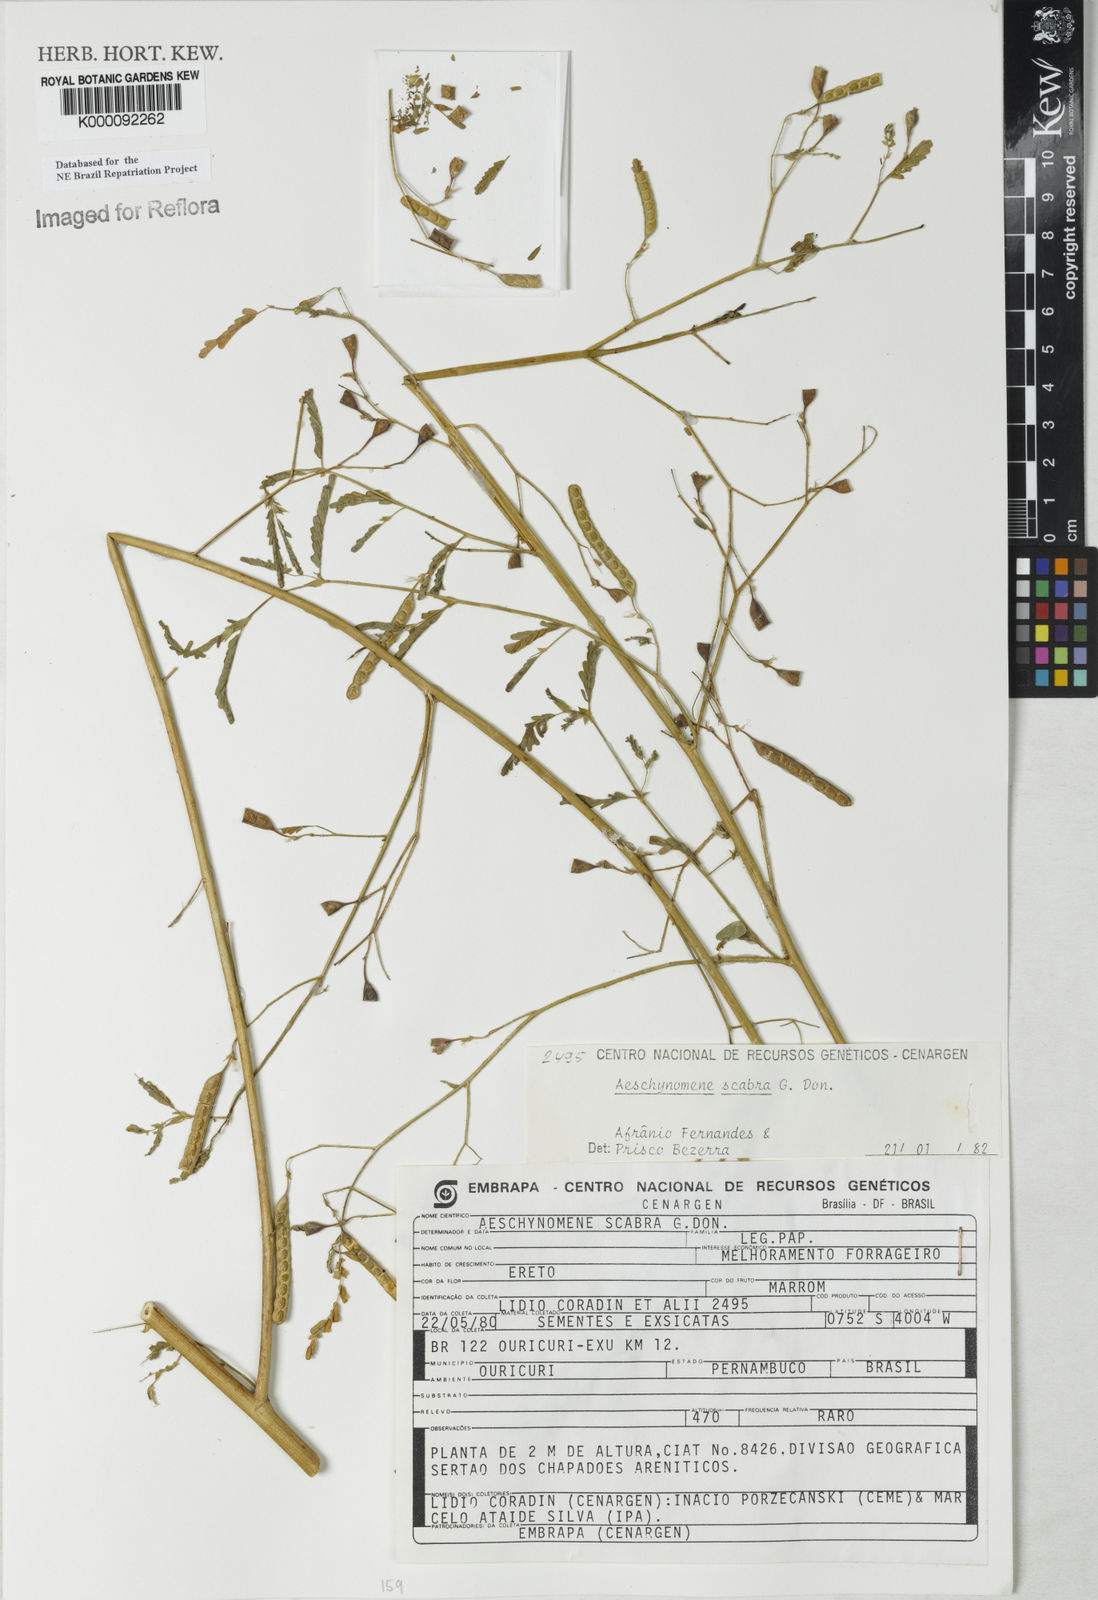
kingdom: Plantae
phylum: Tracheophyta
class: Magnoliopsida
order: Fabales
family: Fabaceae
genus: Aeschynomene
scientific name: Aeschynomene scabra
